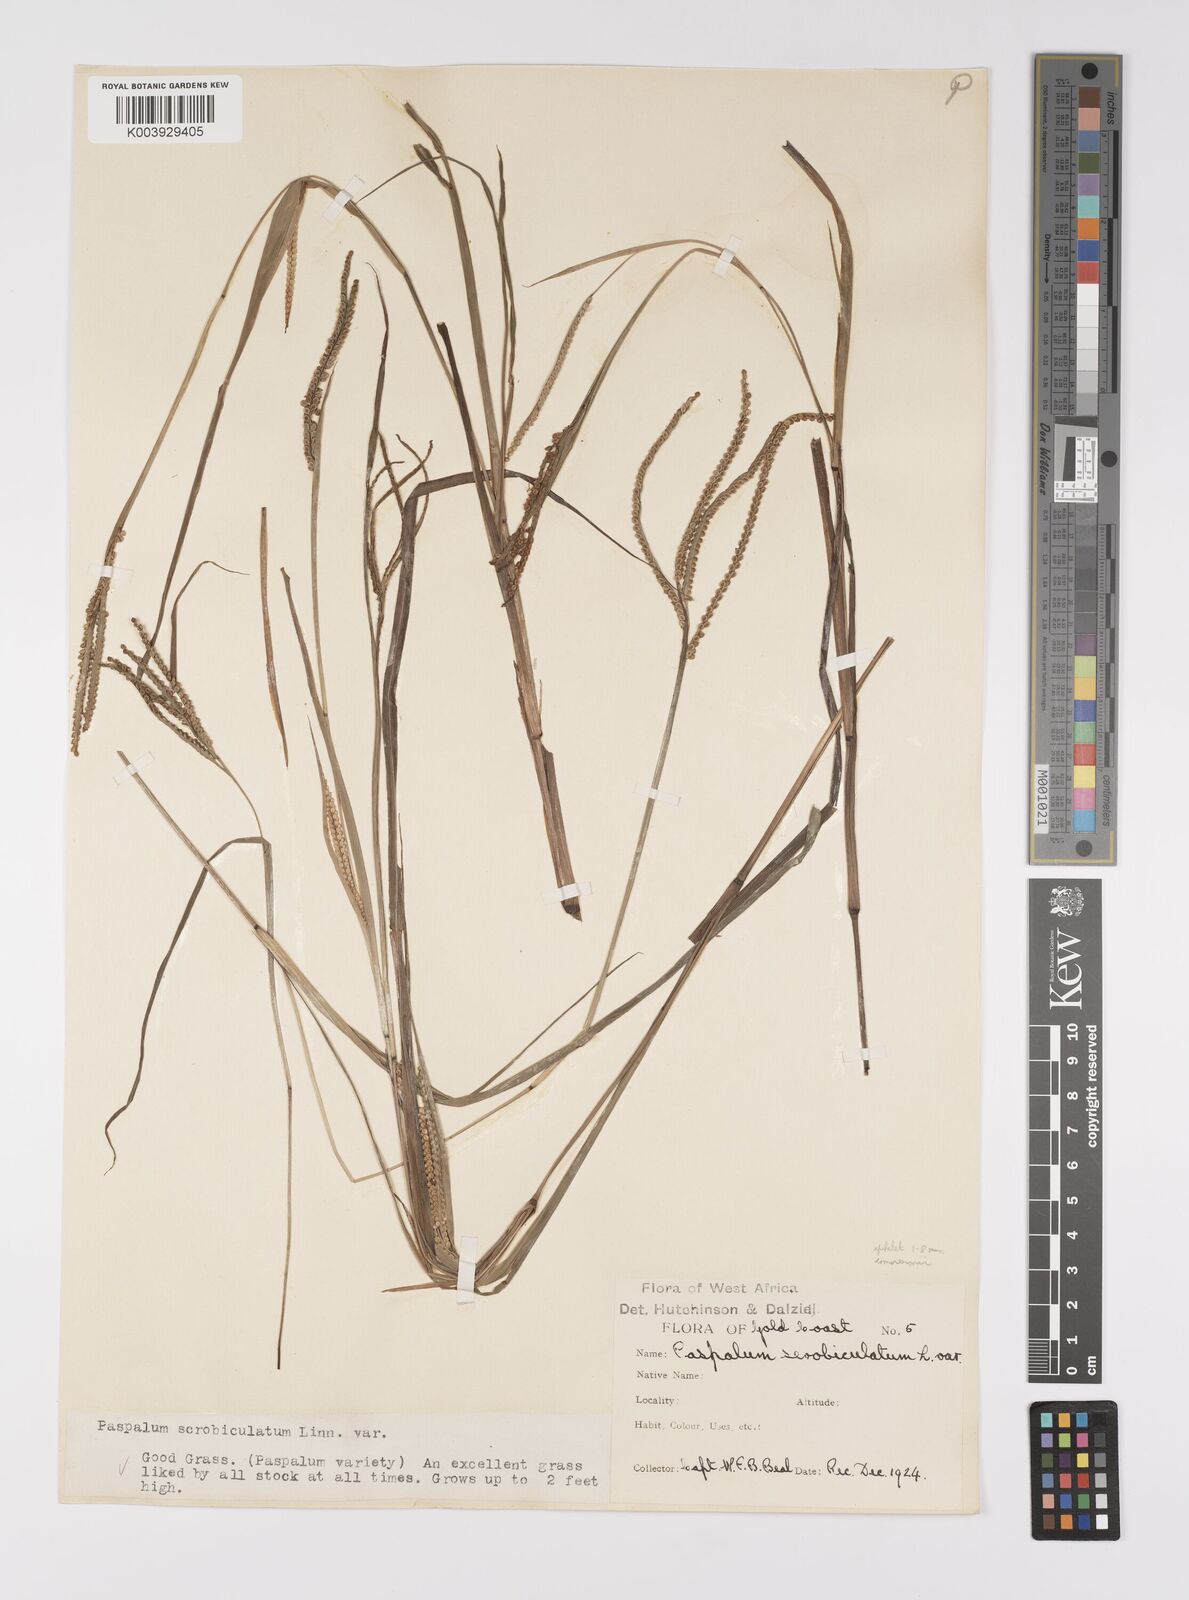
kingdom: Plantae
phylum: Tracheophyta
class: Liliopsida
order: Poales
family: Poaceae
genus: Paspalum
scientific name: Paspalum scrobiculatum
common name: Kodo millet
